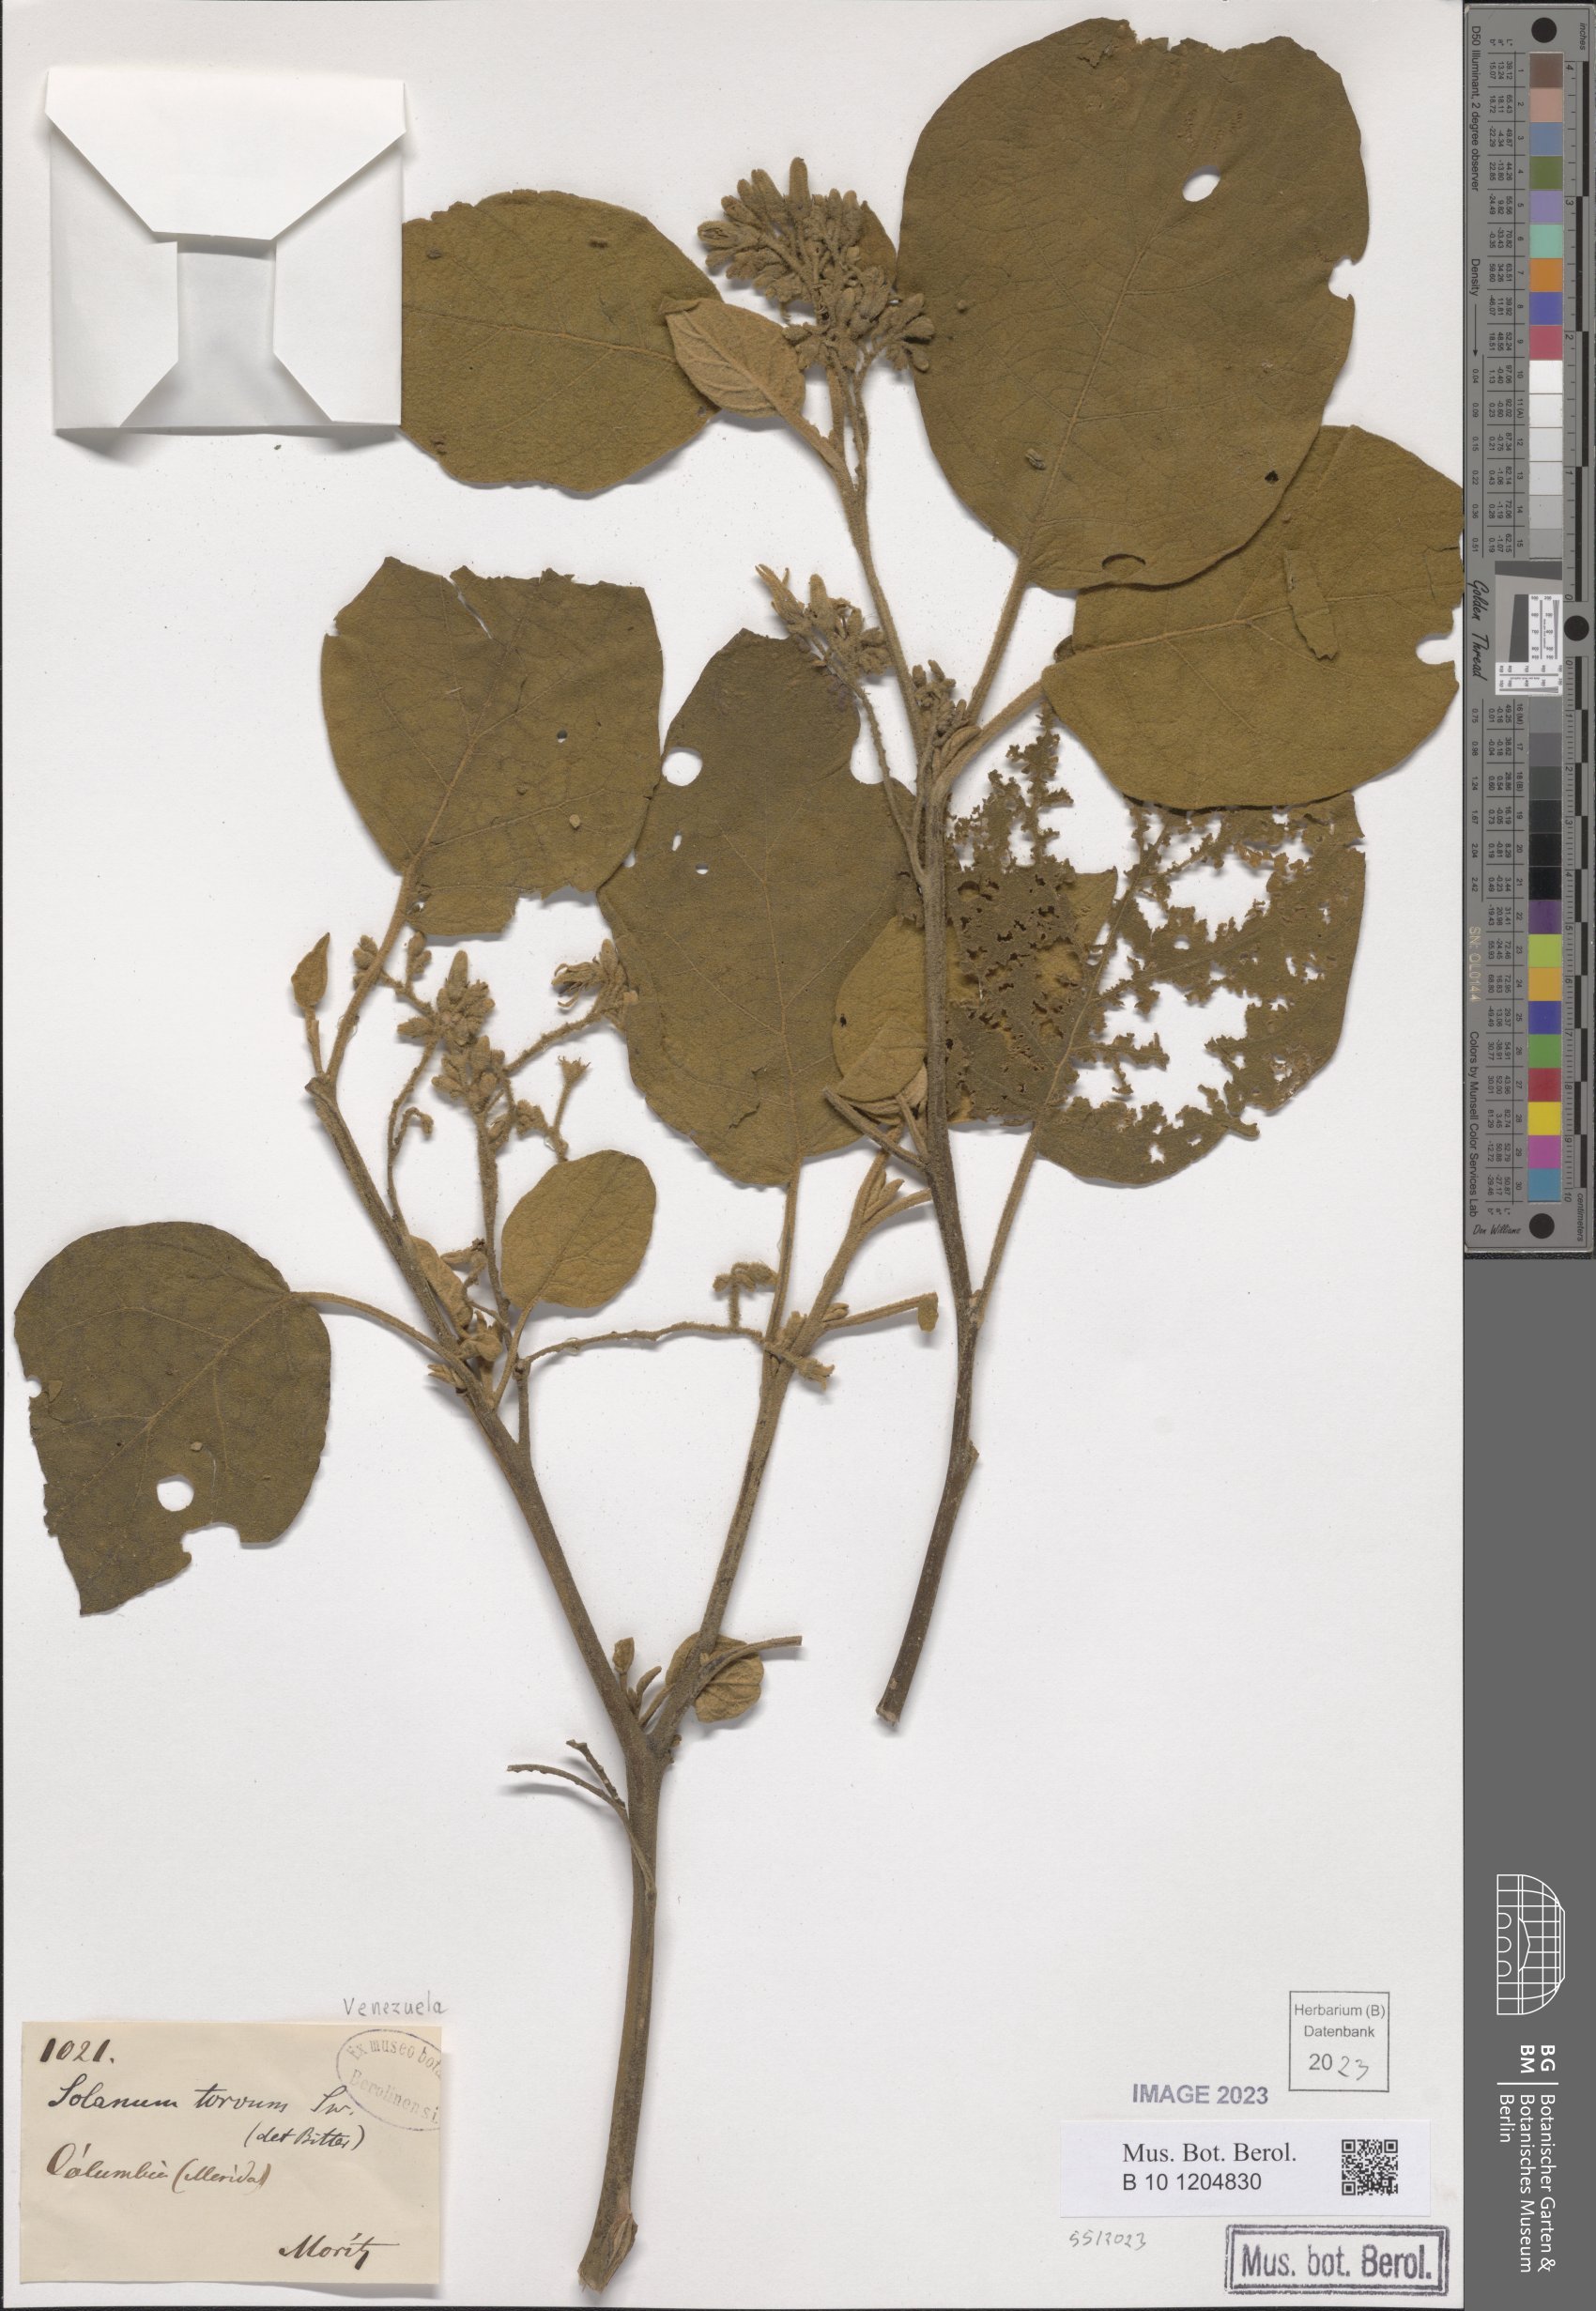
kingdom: Plantae
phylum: Tracheophyta
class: Magnoliopsida
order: Solanales
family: Solanaceae
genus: Solanum
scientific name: Solanum torvum
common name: Turkey berry
